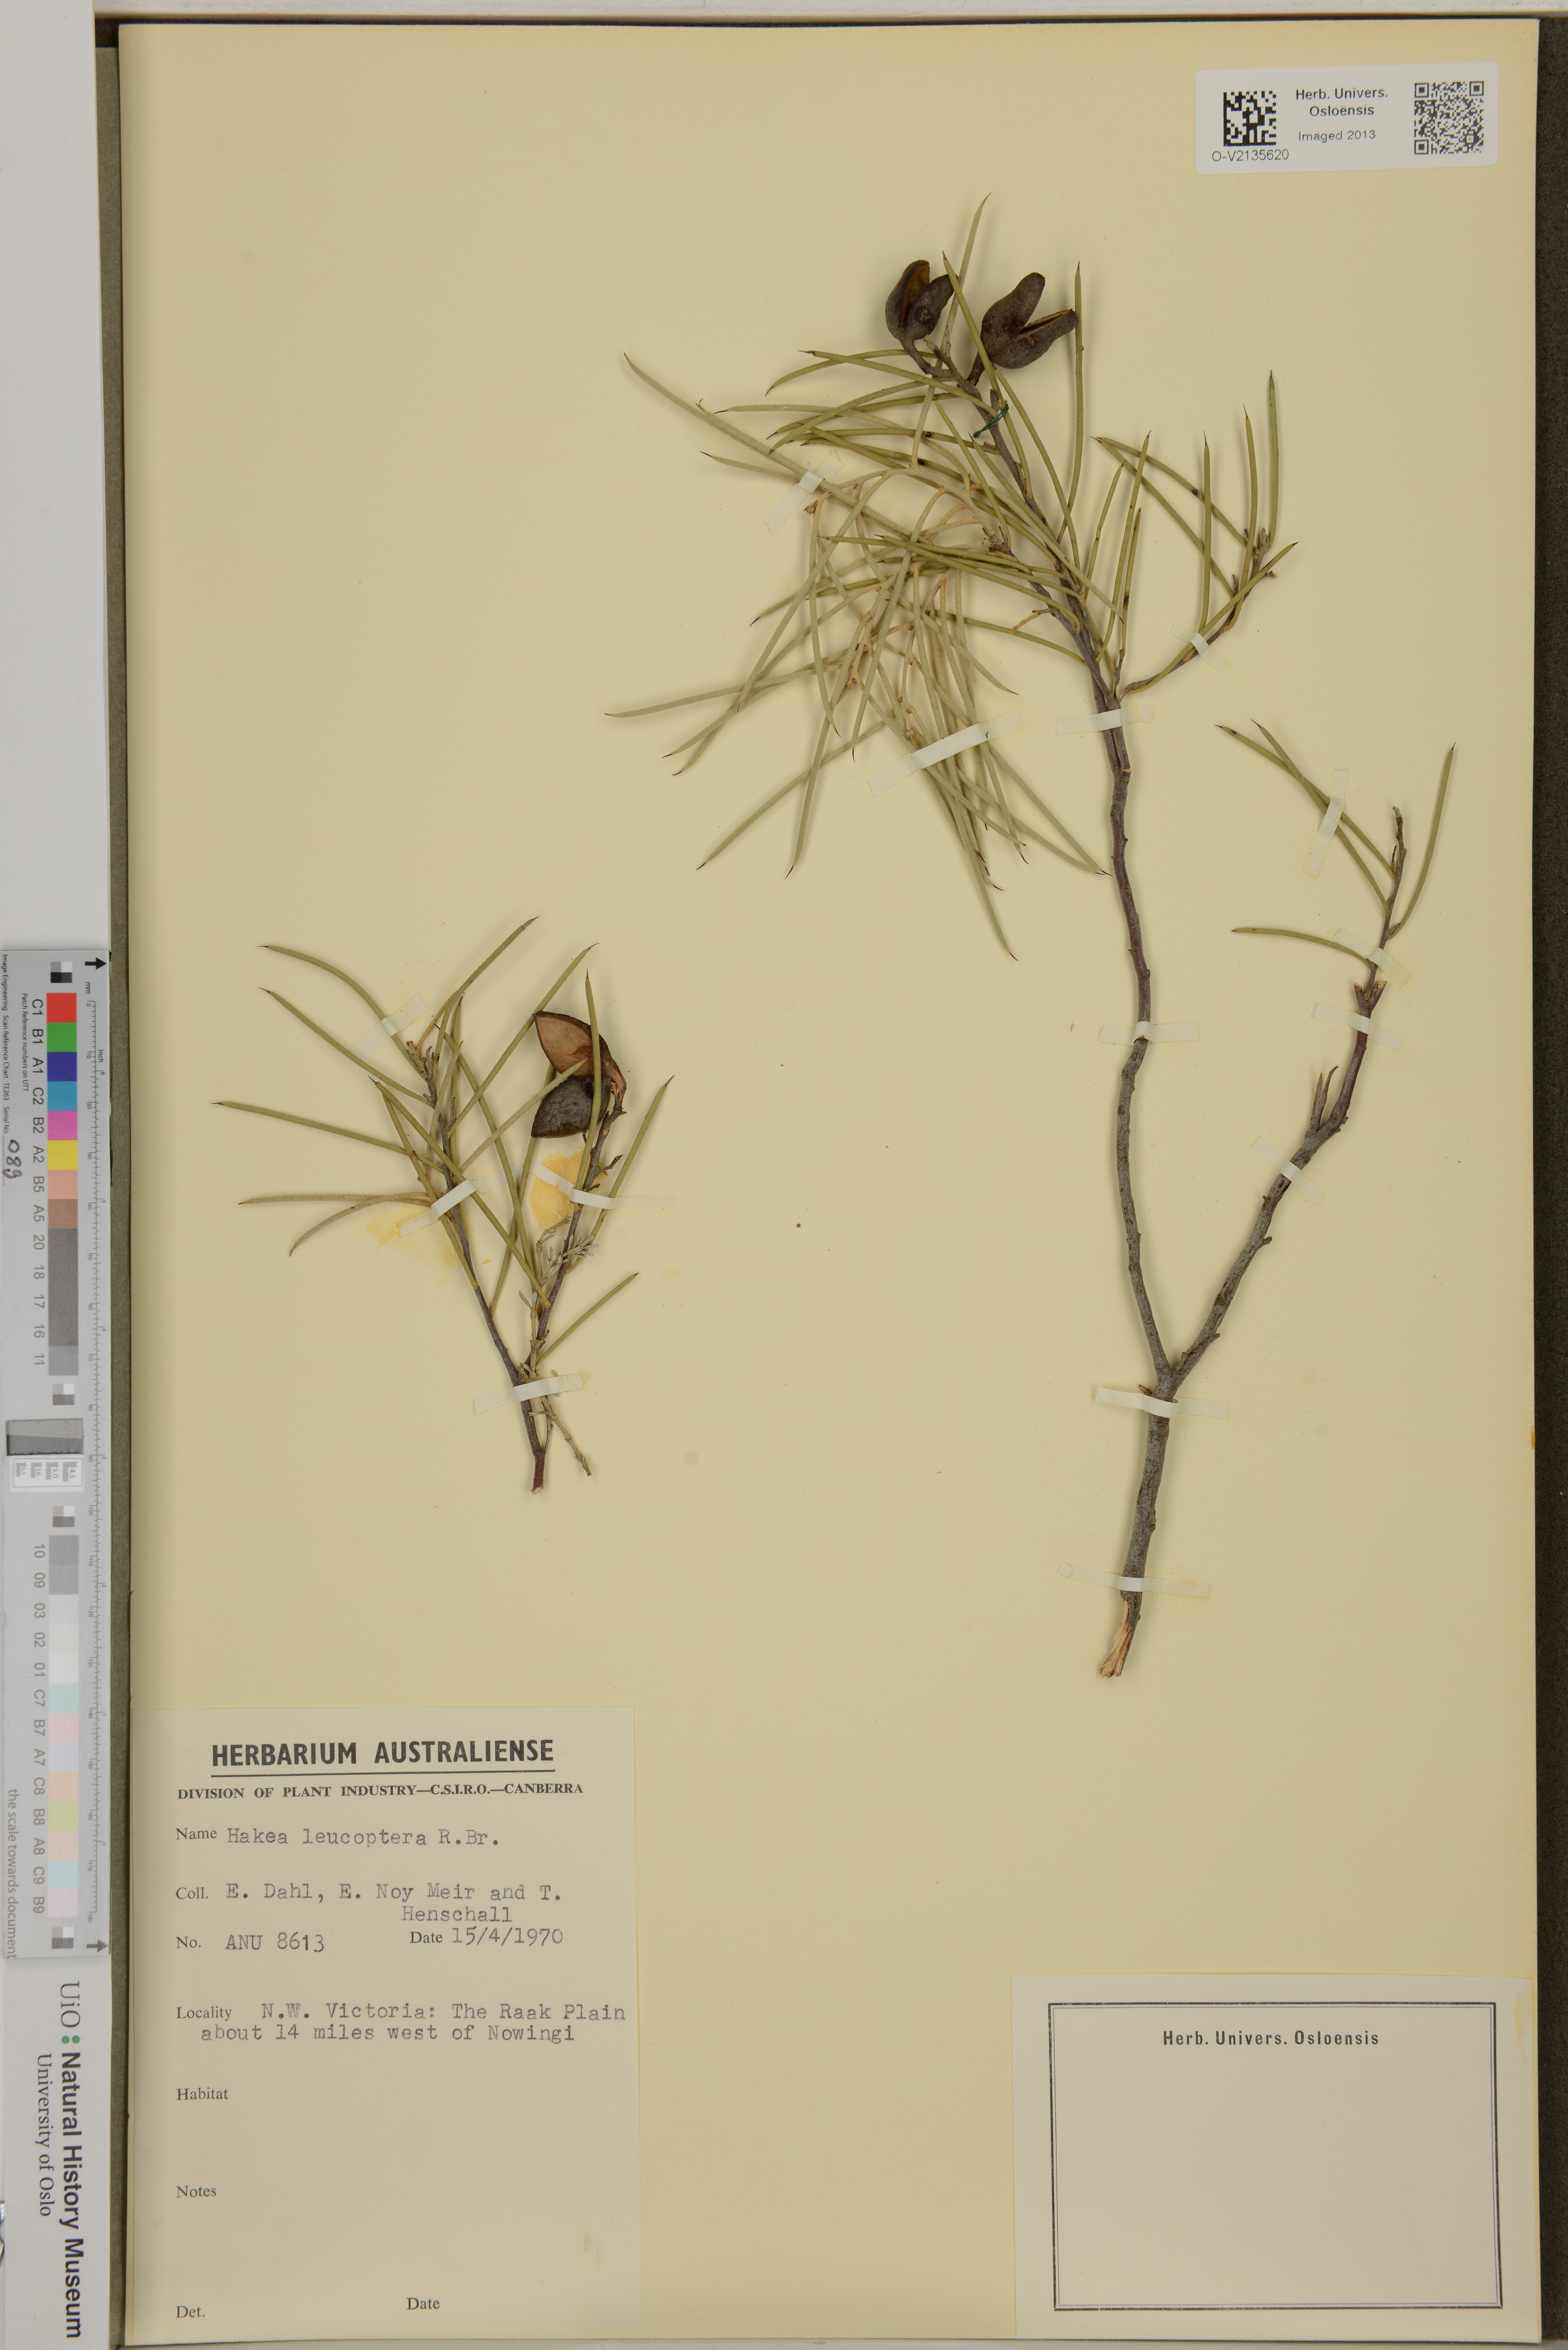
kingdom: Plantae
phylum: Tracheophyta
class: Magnoliopsida
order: Proteales
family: Proteaceae
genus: Hakea
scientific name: Hakea leucoptera
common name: Pinbush
